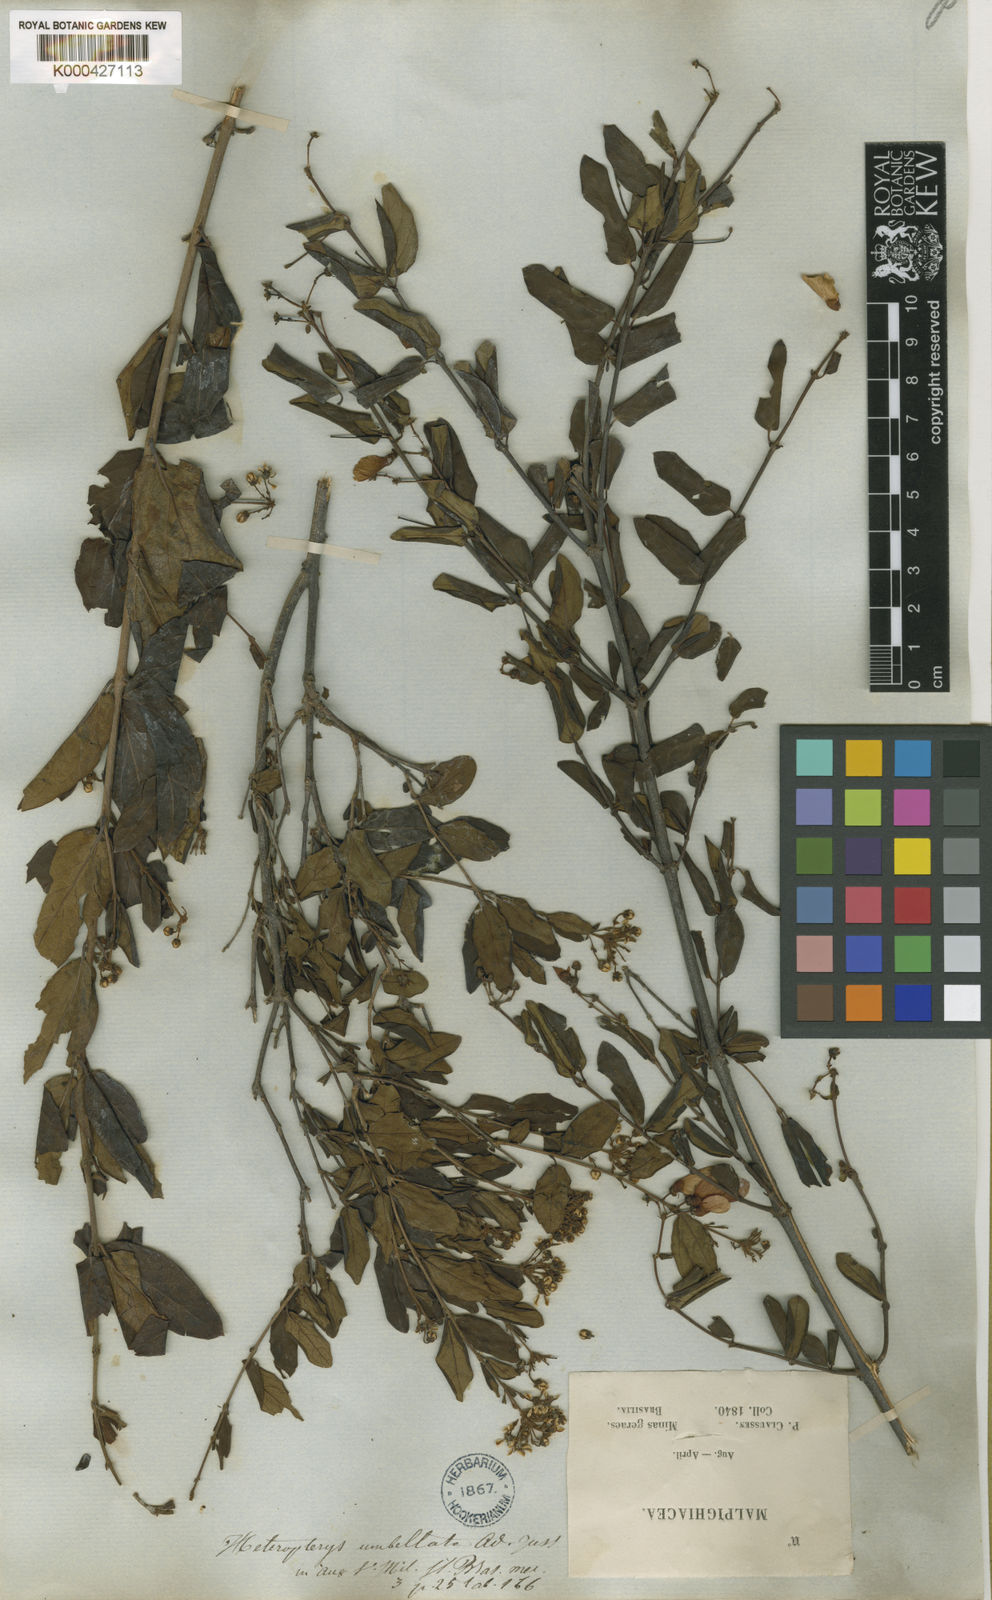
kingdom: Plantae
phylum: Tracheophyta
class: Magnoliopsida
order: Malpighiales
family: Malpighiaceae
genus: Heteropterys
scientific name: Heteropterys umbellata
